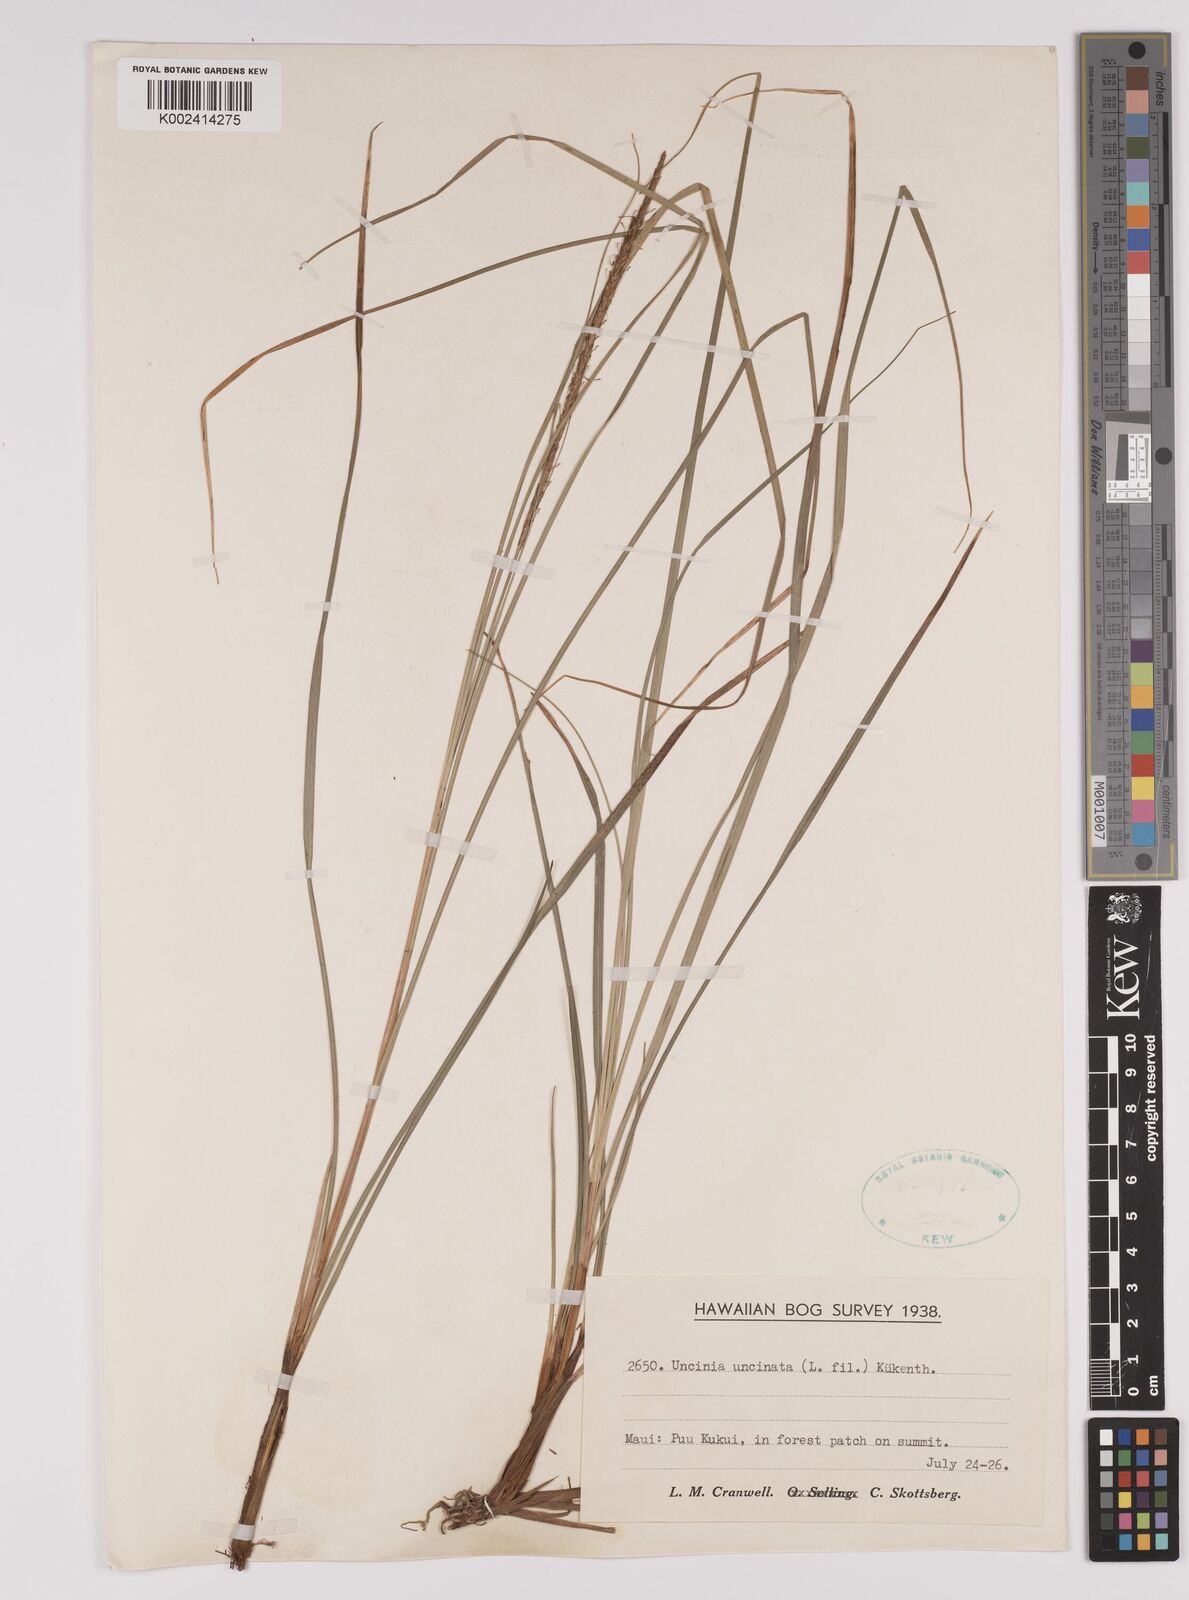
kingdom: Plantae
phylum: Tracheophyta
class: Liliopsida
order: Poales
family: Cyperaceae
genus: Carex
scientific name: Carex uncinata
